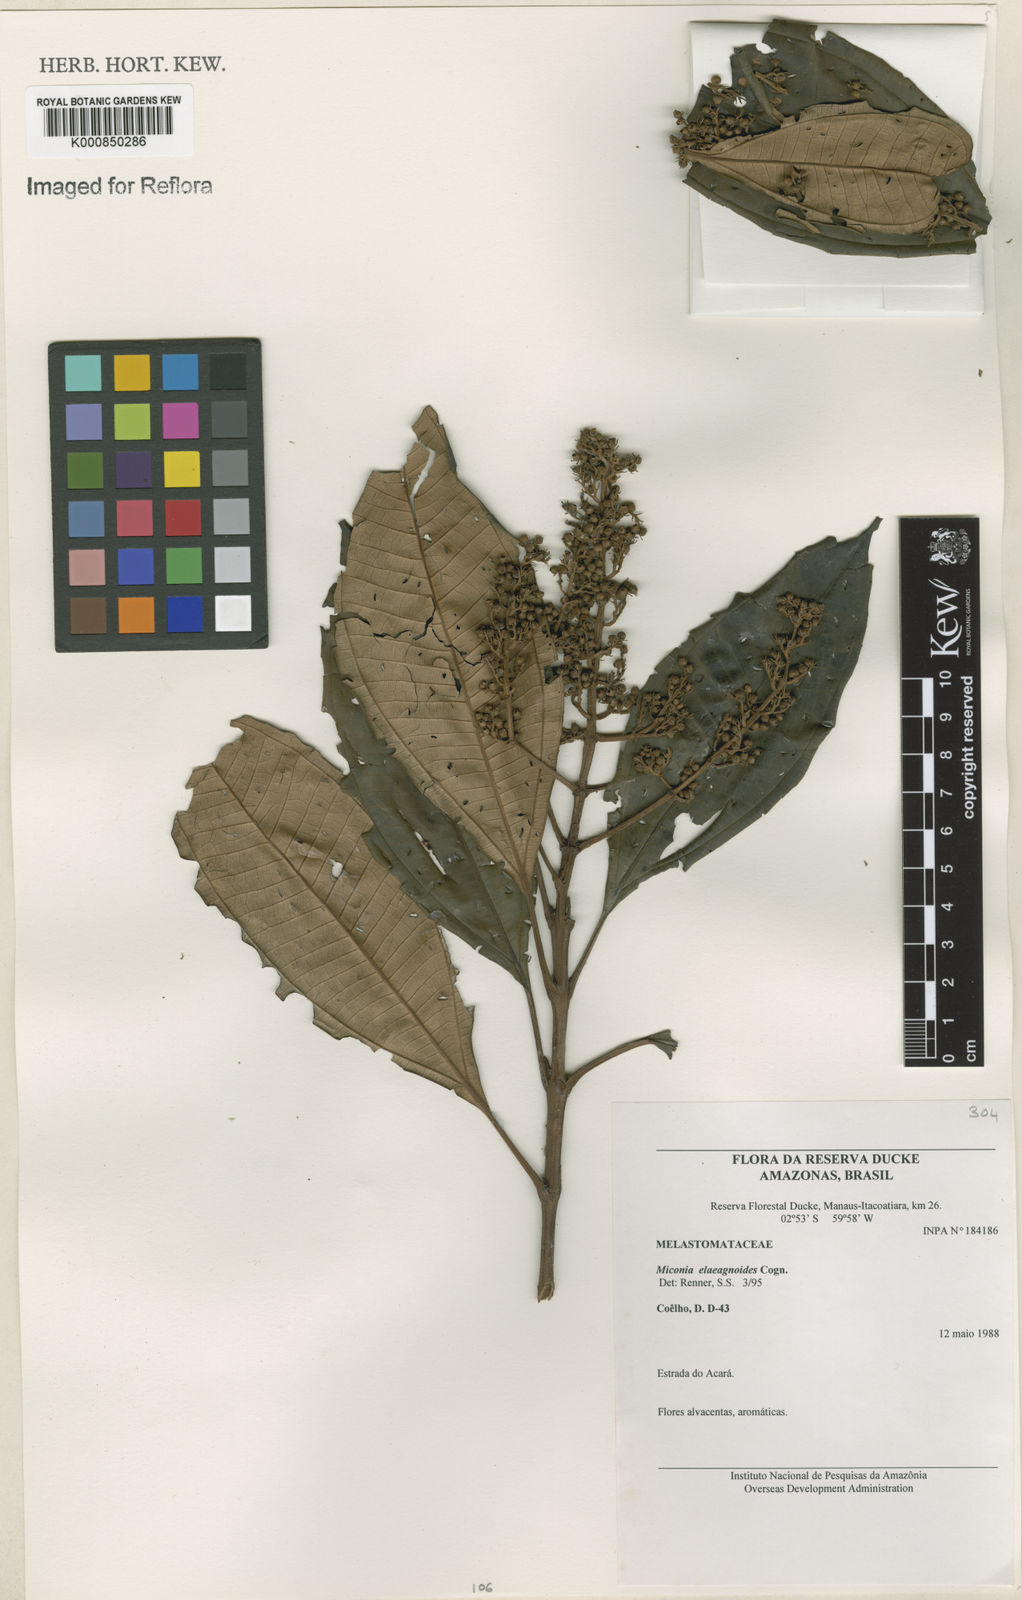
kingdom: Plantae
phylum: Tracheophyta
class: Magnoliopsida
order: Myrtales
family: Melastomataceae
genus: Miconia
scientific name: Miconia
